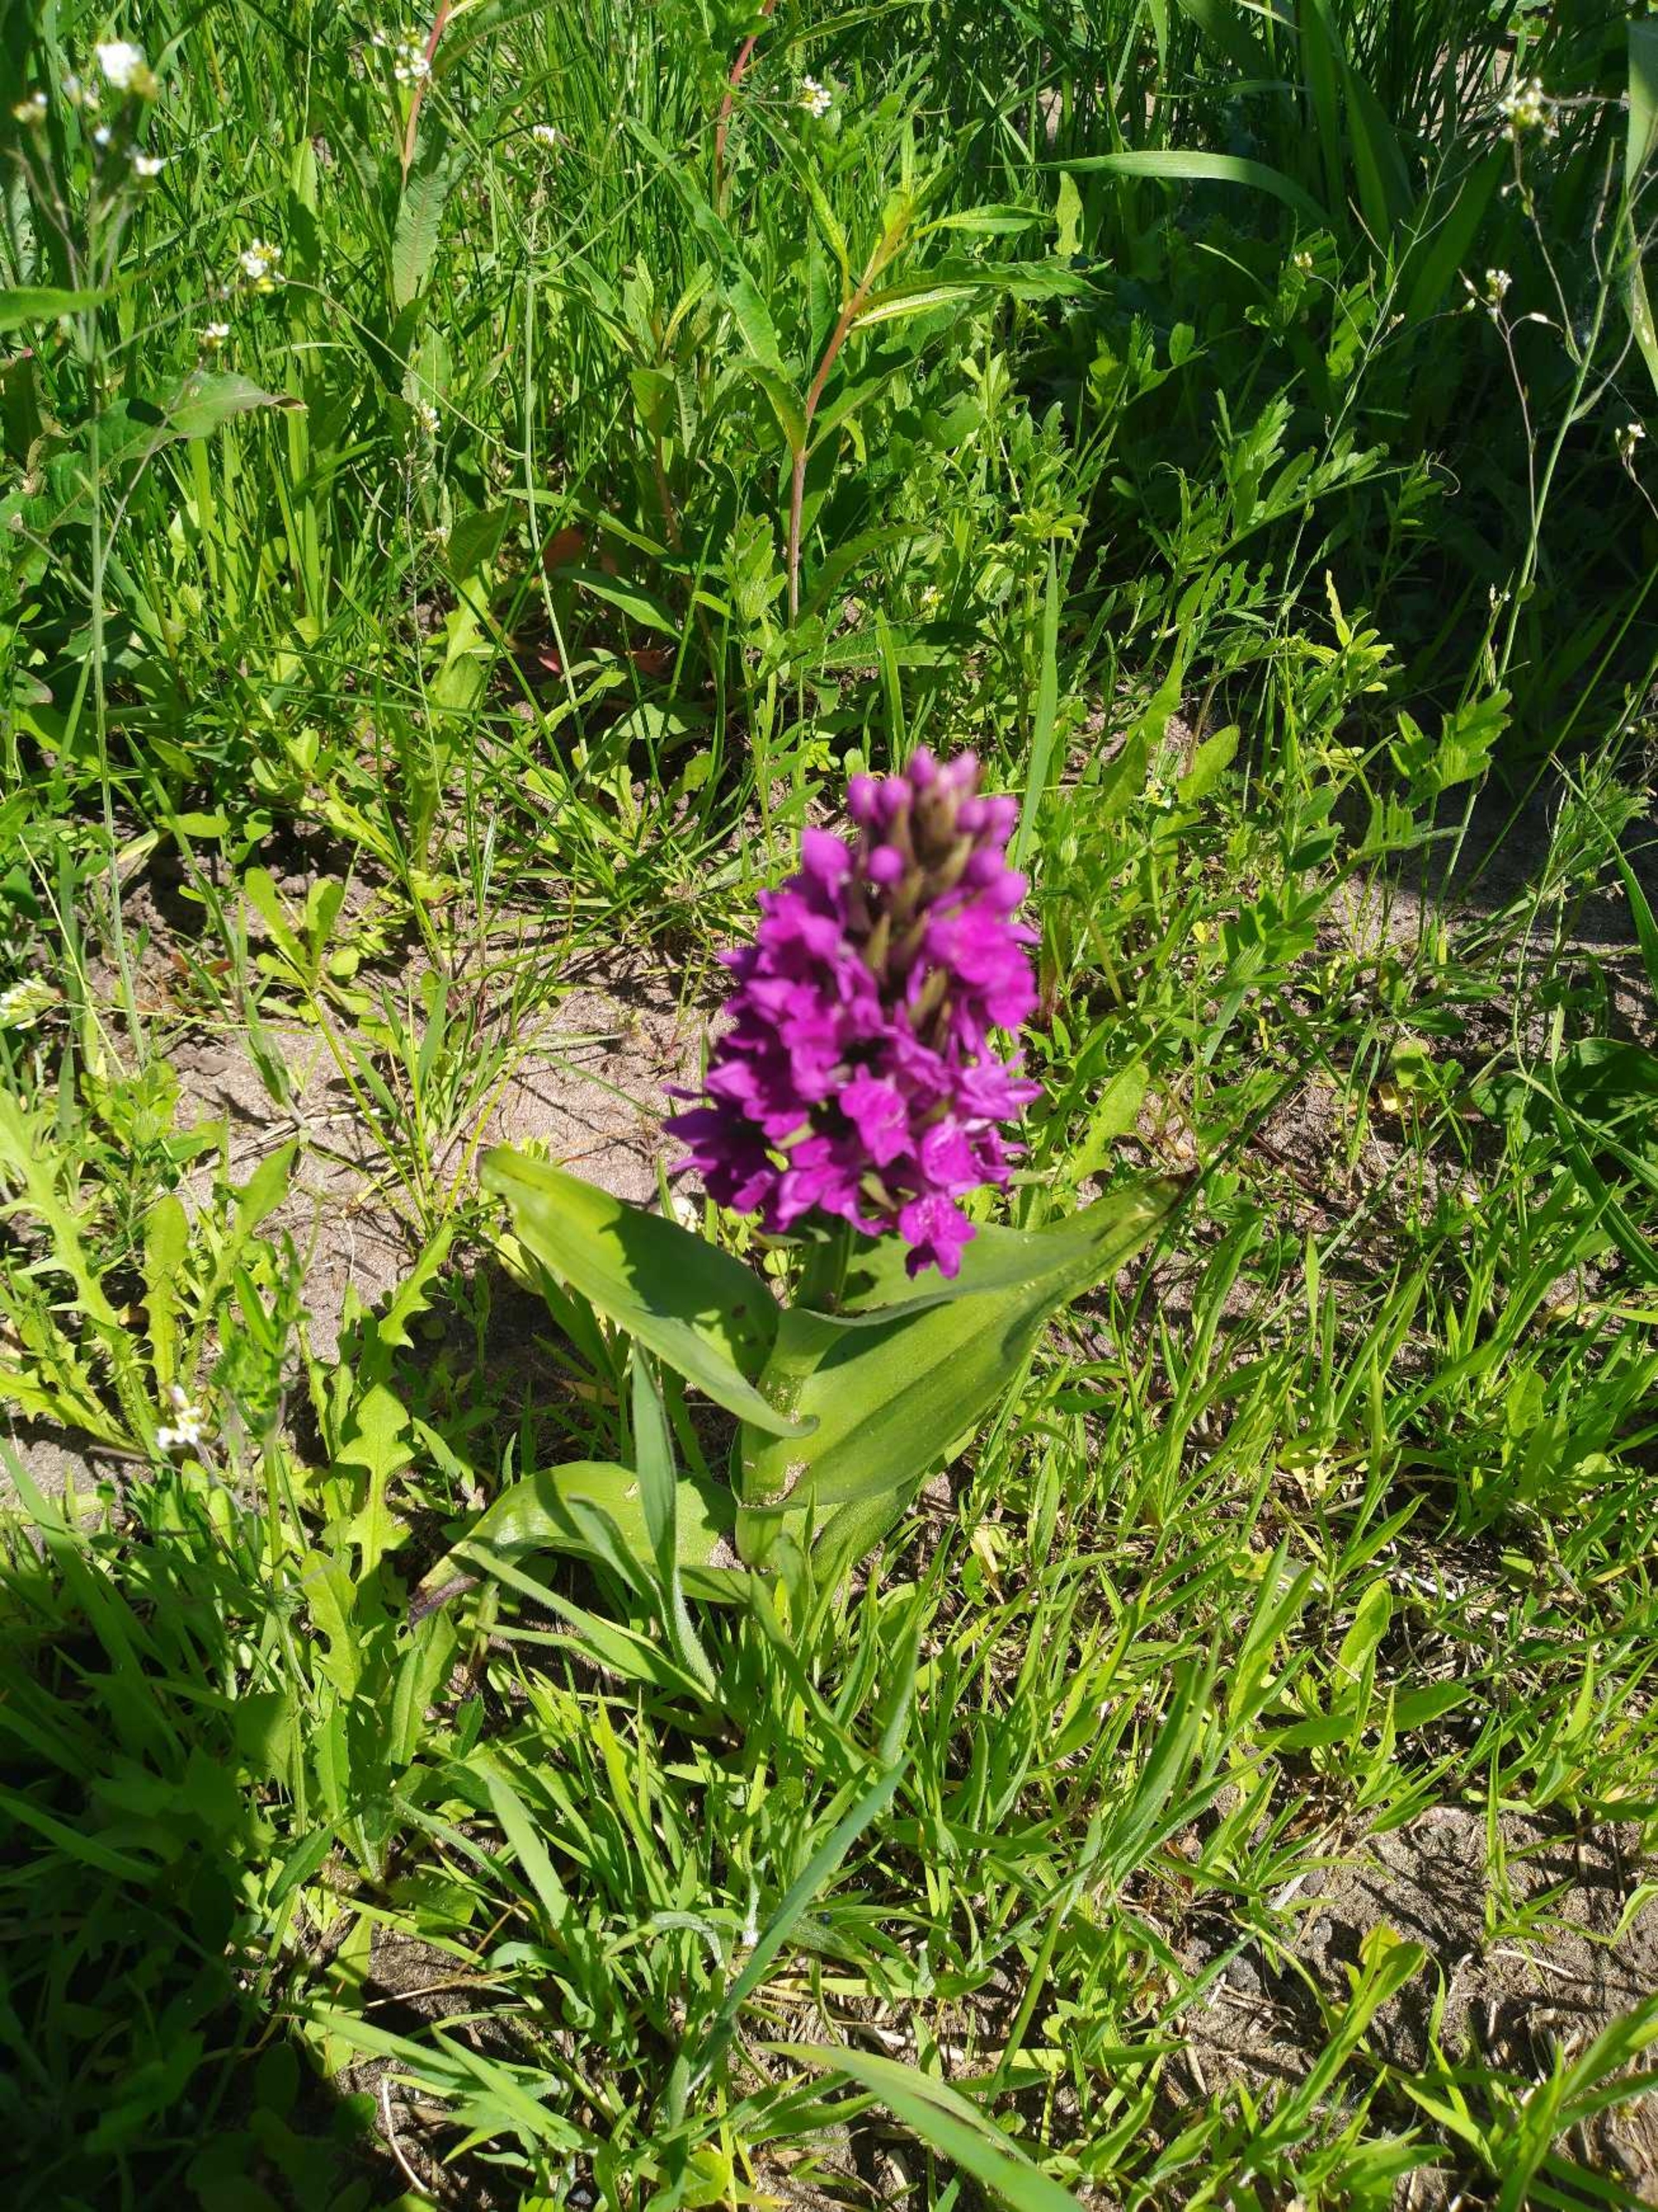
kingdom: Plantae
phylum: Tracheophyta
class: Liliopsida
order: Asparagales
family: Orchidaceae
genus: Dactylorhiza
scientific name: Dactylorhiza majalis
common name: Purpur-gøgeurt
